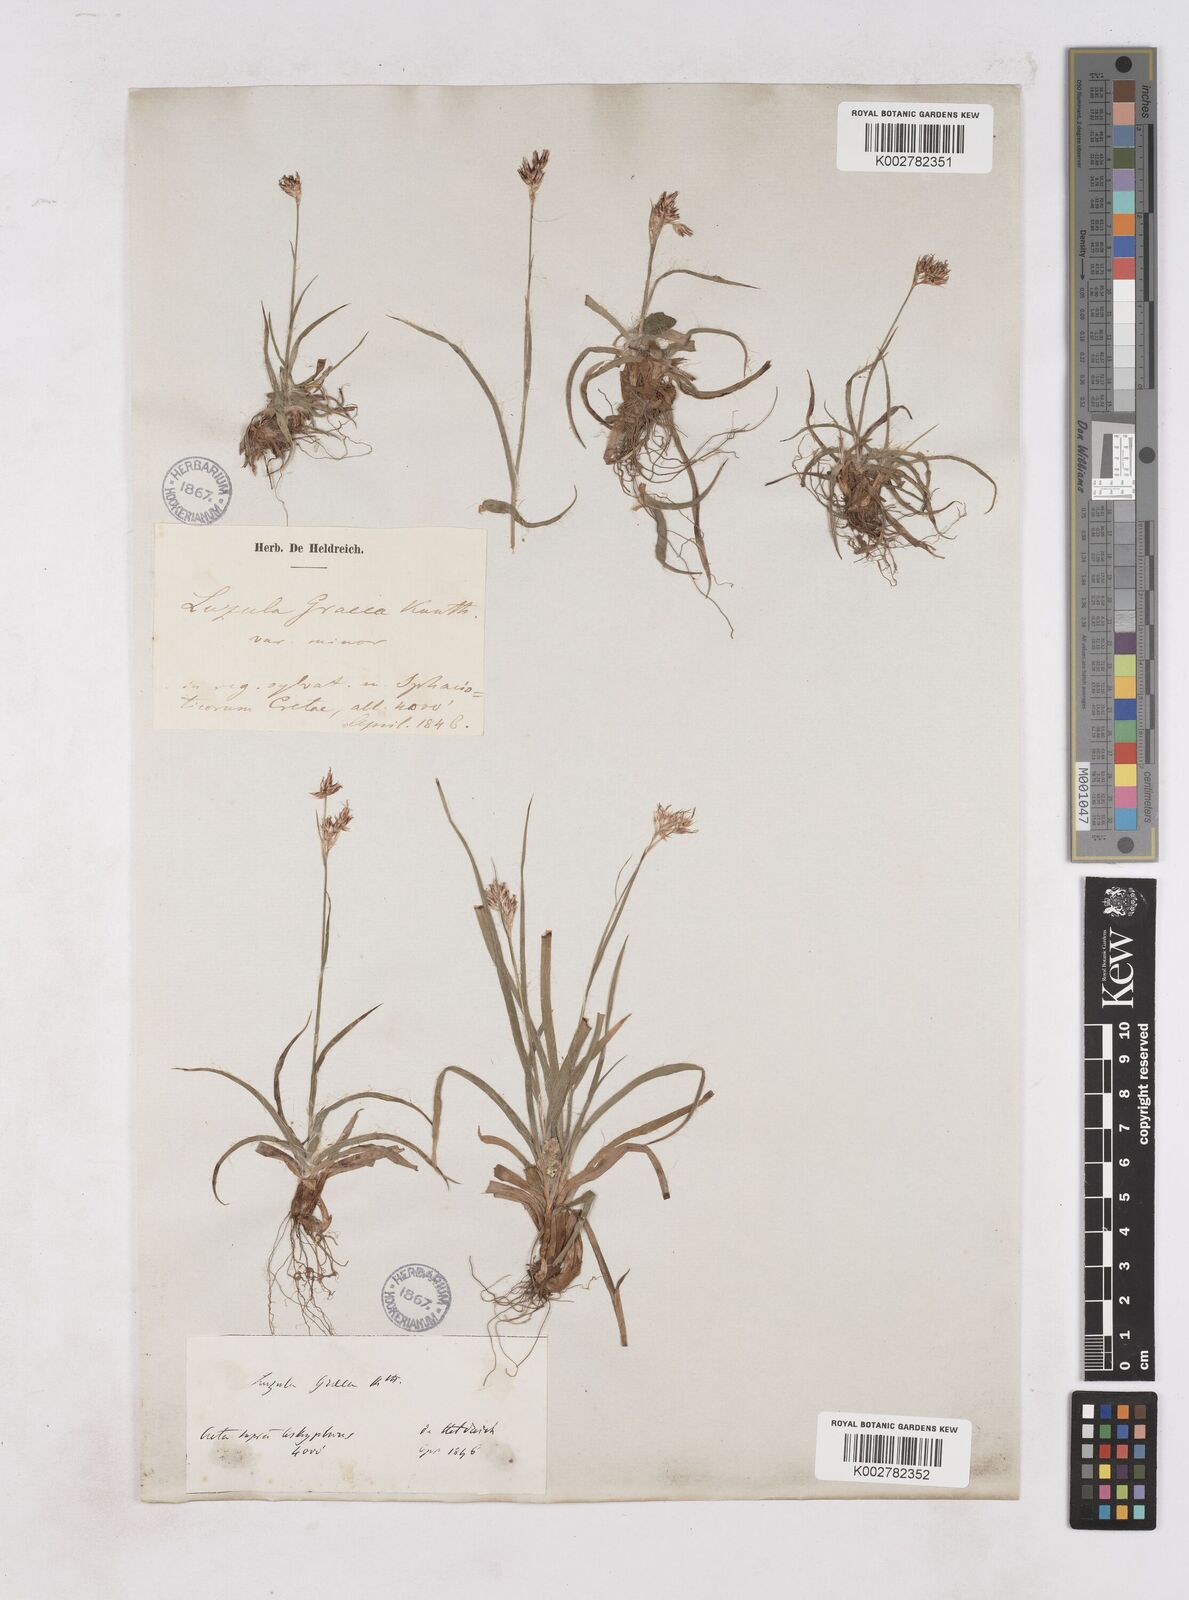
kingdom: Plantae
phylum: Tracheophyta
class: Liliopsida
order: Poales
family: Juncaceae
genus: Luzula
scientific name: Luzula nodulosa
